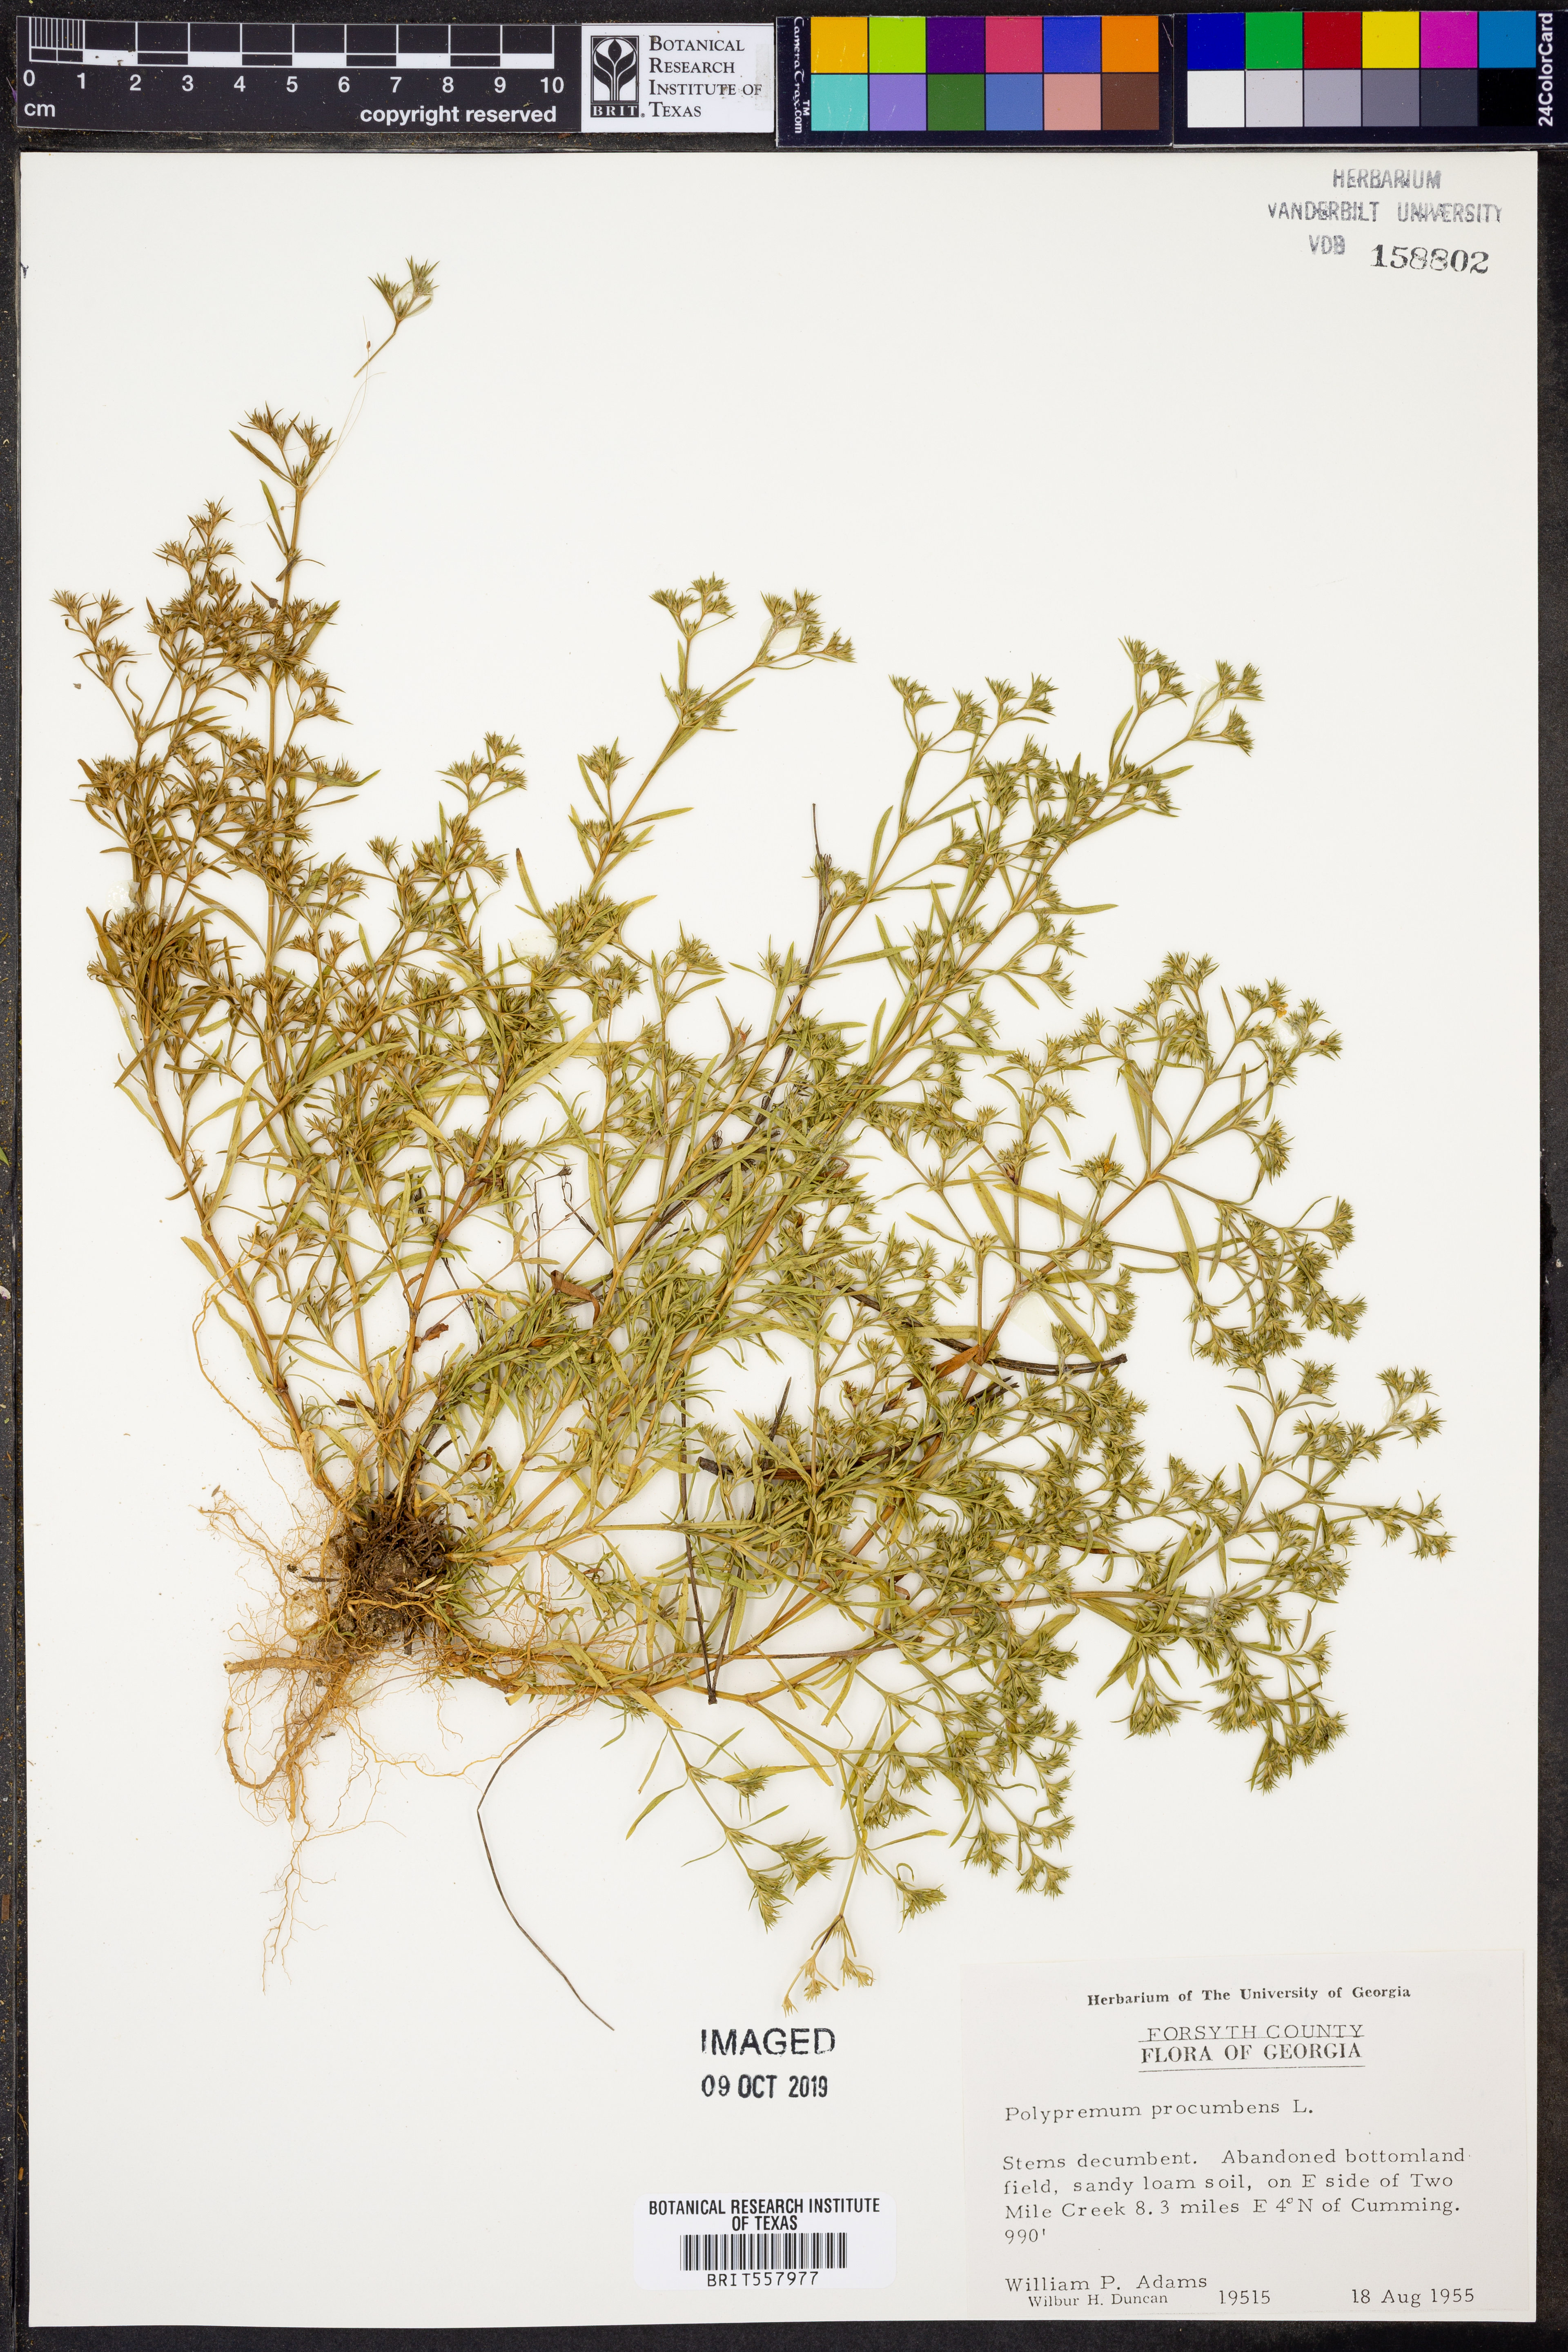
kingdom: Plantae
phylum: Tracheophyta
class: Magnoliopsida
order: Lamiales
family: Tetrachondraceae
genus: Polypremum
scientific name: Polypremum procumbens
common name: Juniper-leaf
